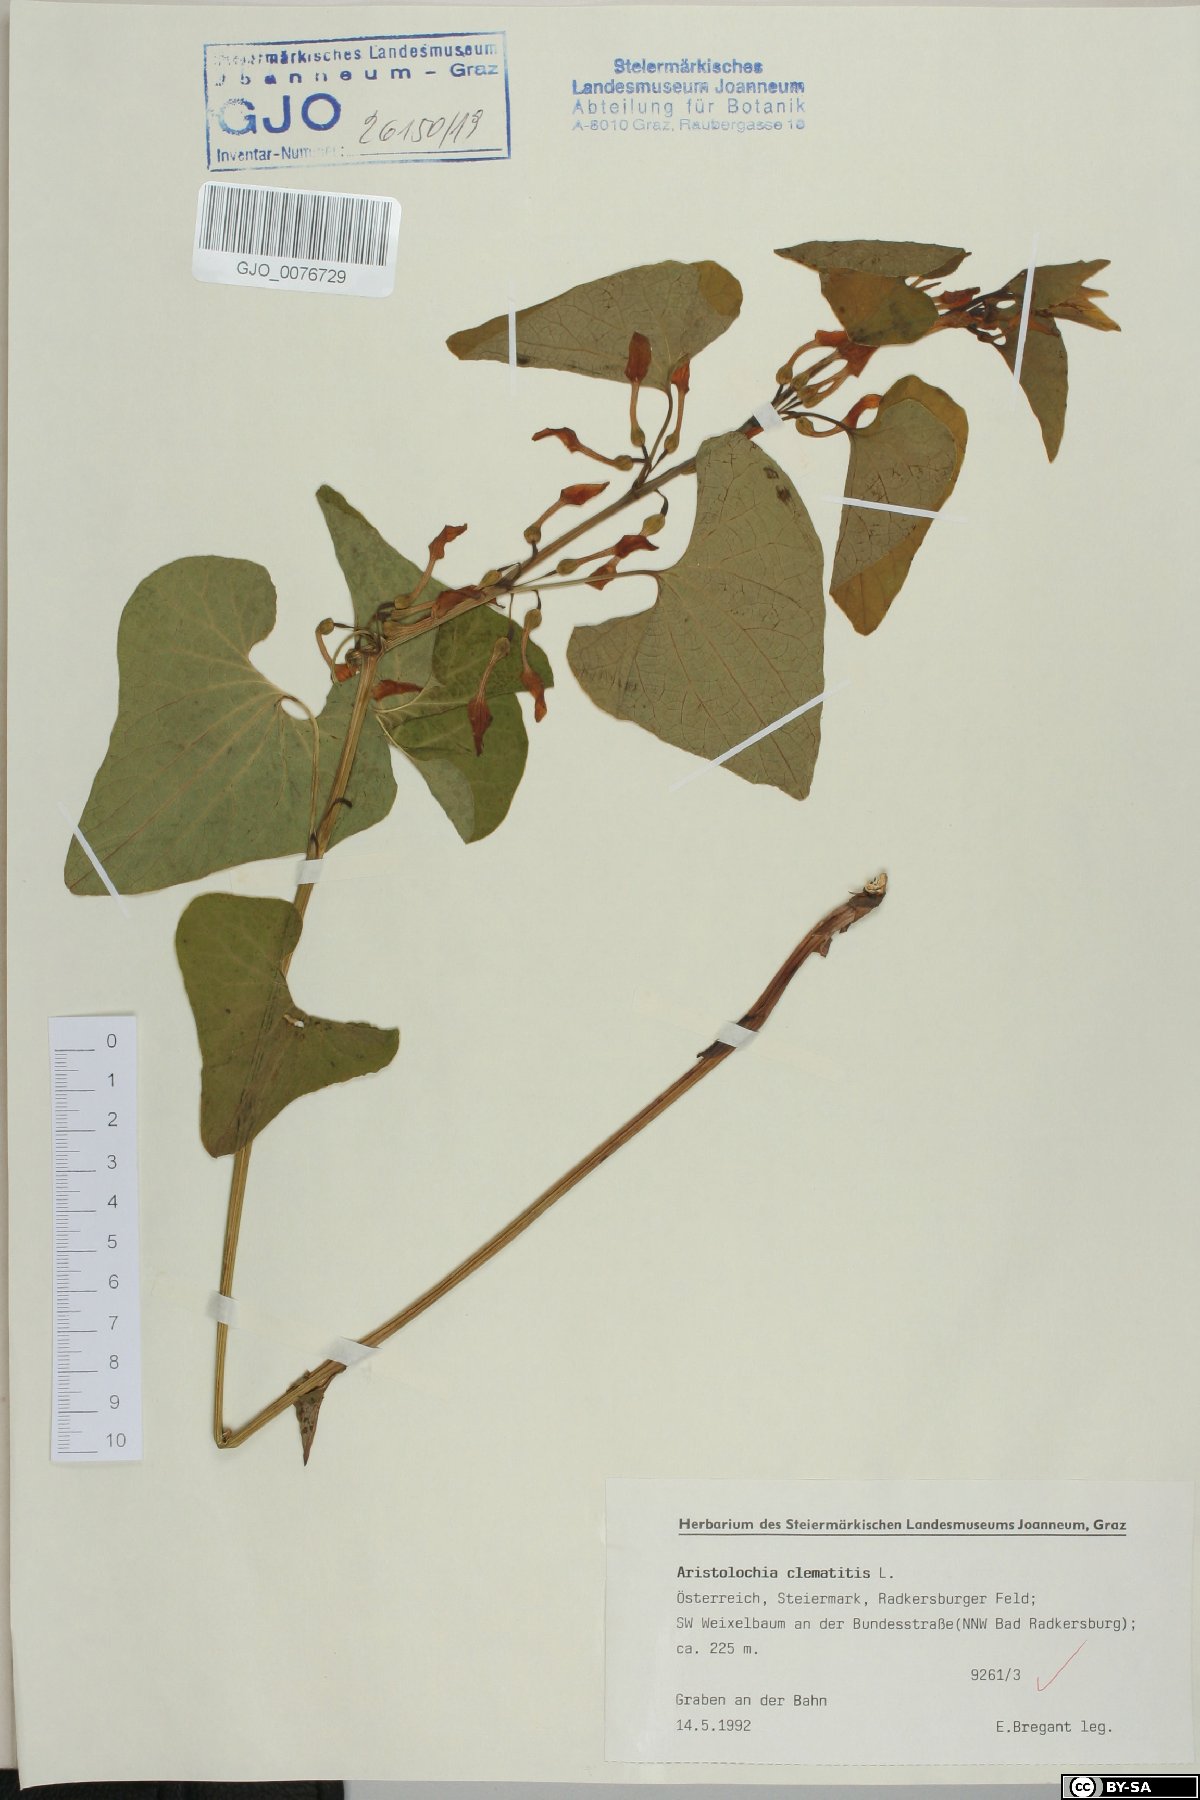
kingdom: Plantae
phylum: Tracheophyta
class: Magnoliopsida
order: Piperales
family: Aristolochiaceae
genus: Aristolochia
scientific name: Aristolochia clematitis
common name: Birthwort
